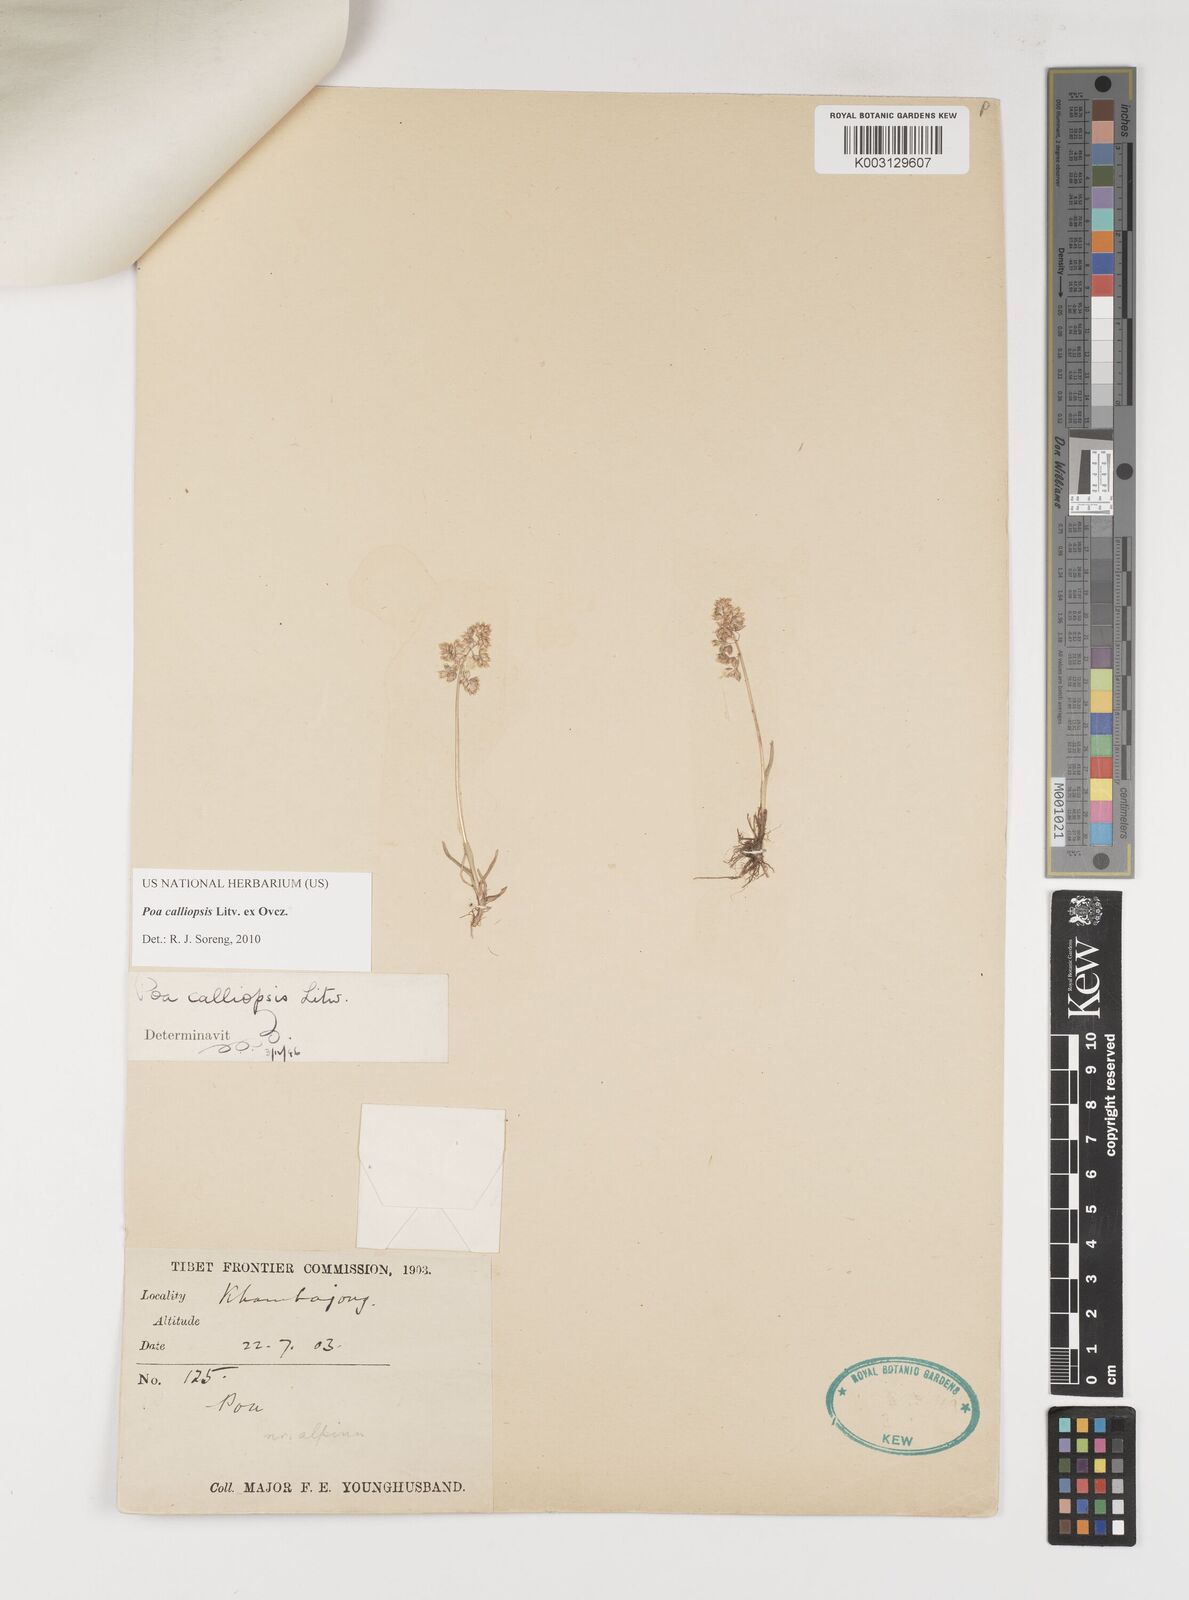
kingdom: Plantae
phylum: Tracheophyta
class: Liliopsida
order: Poales
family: Poaceae
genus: Poa
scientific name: Poa calliopsis
